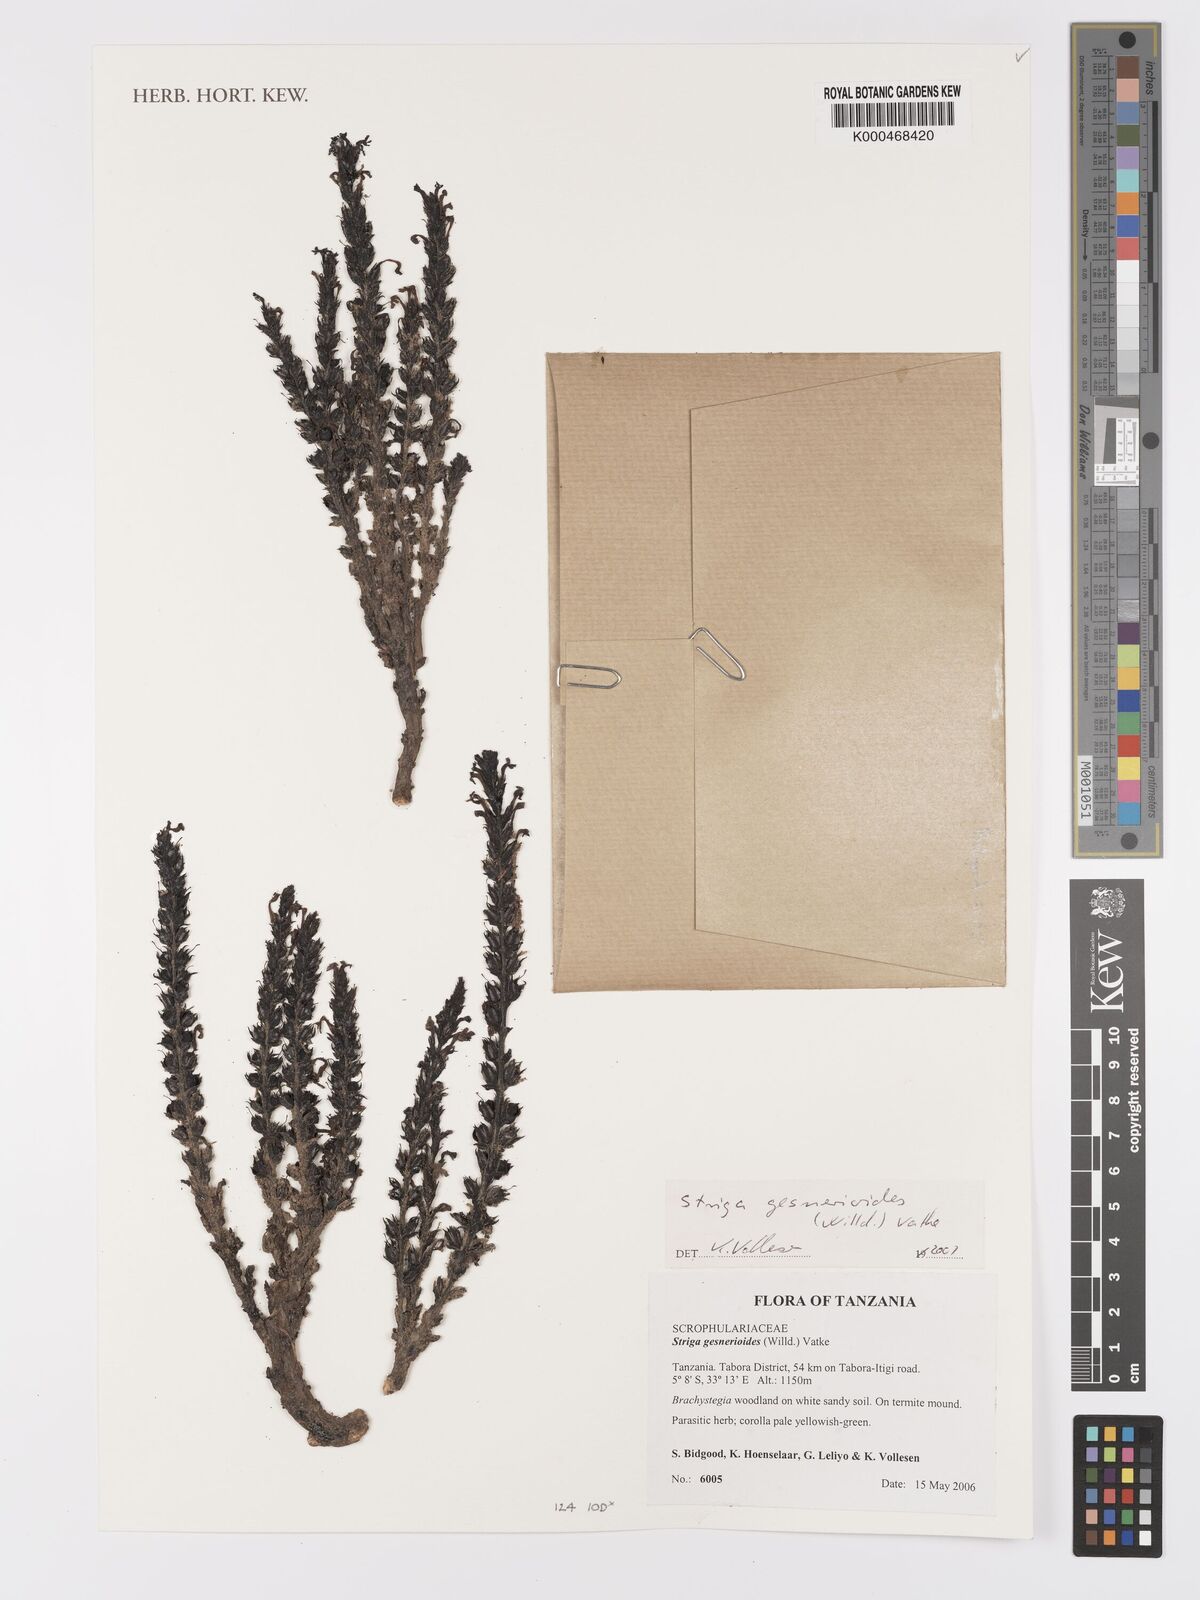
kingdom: Plantae
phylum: Tracheophyta
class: Magnoliopsida
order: Lamiales
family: Orobanchaceae
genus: Striga
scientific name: Striga gesnerioides
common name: Cowpea witchweed
